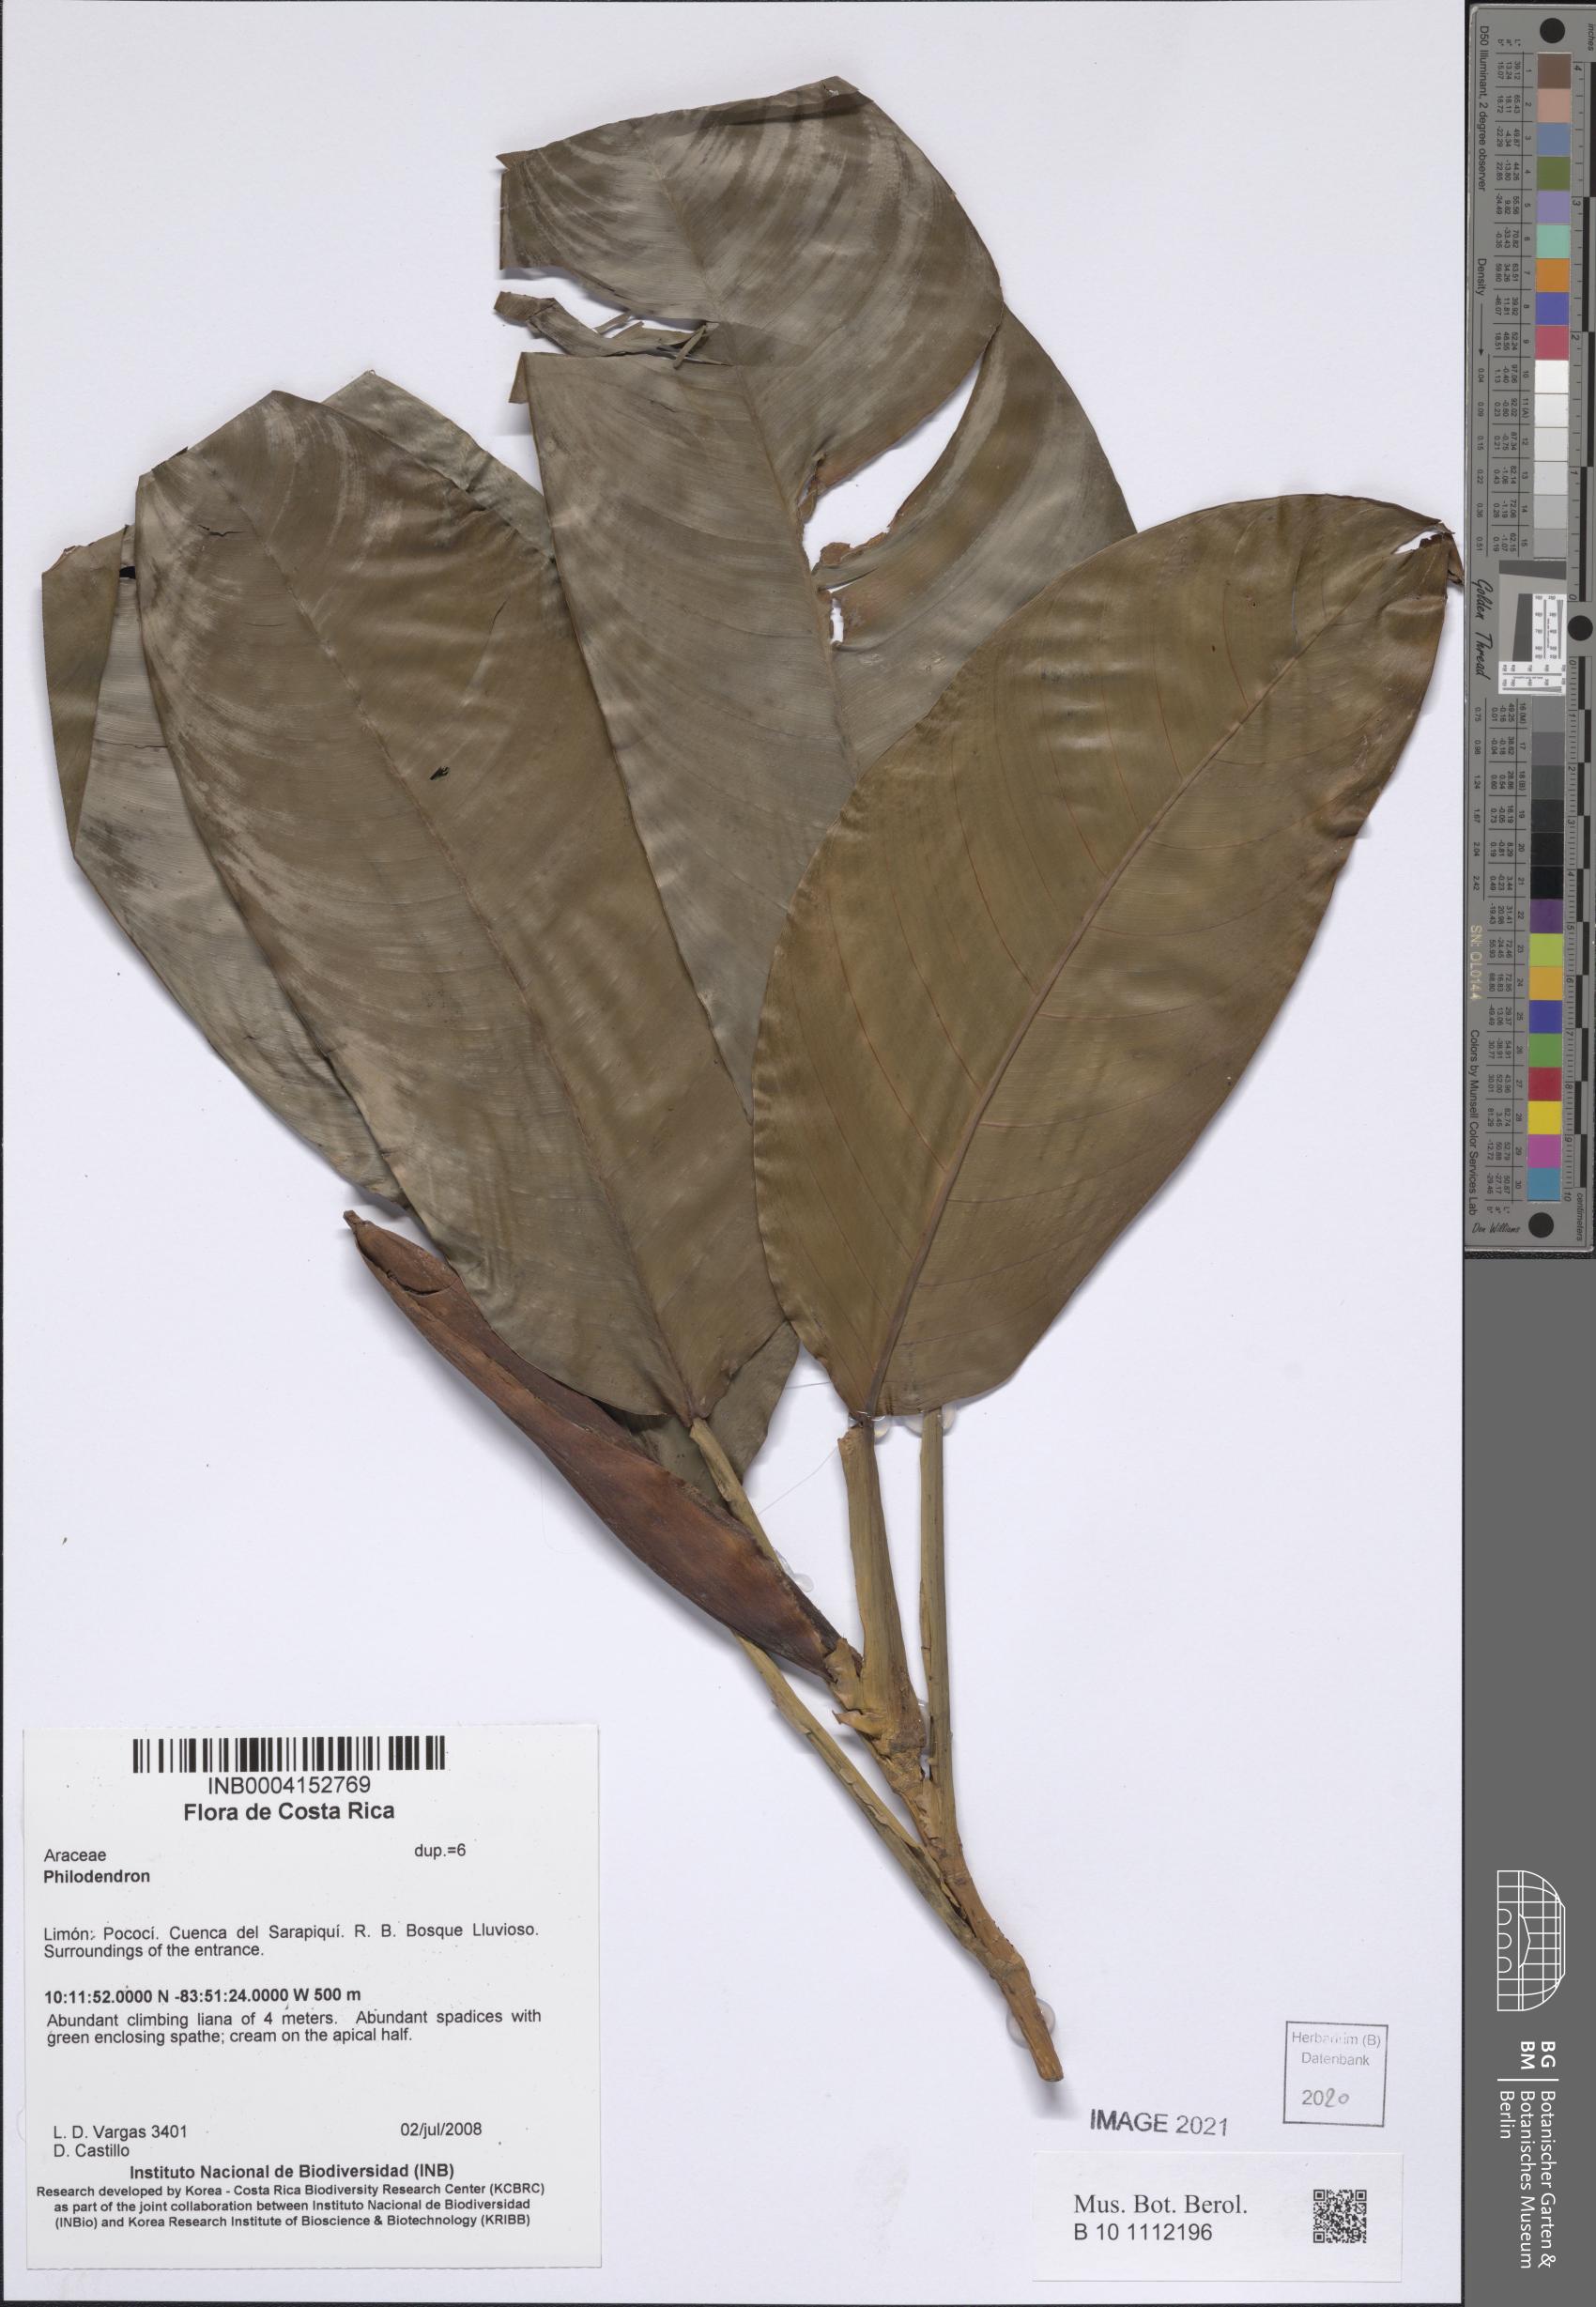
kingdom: Plantae
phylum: Tracheophyta
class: Liliopsida
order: Alismatales
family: Araceae
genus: Philodendron
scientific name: Philodendron
